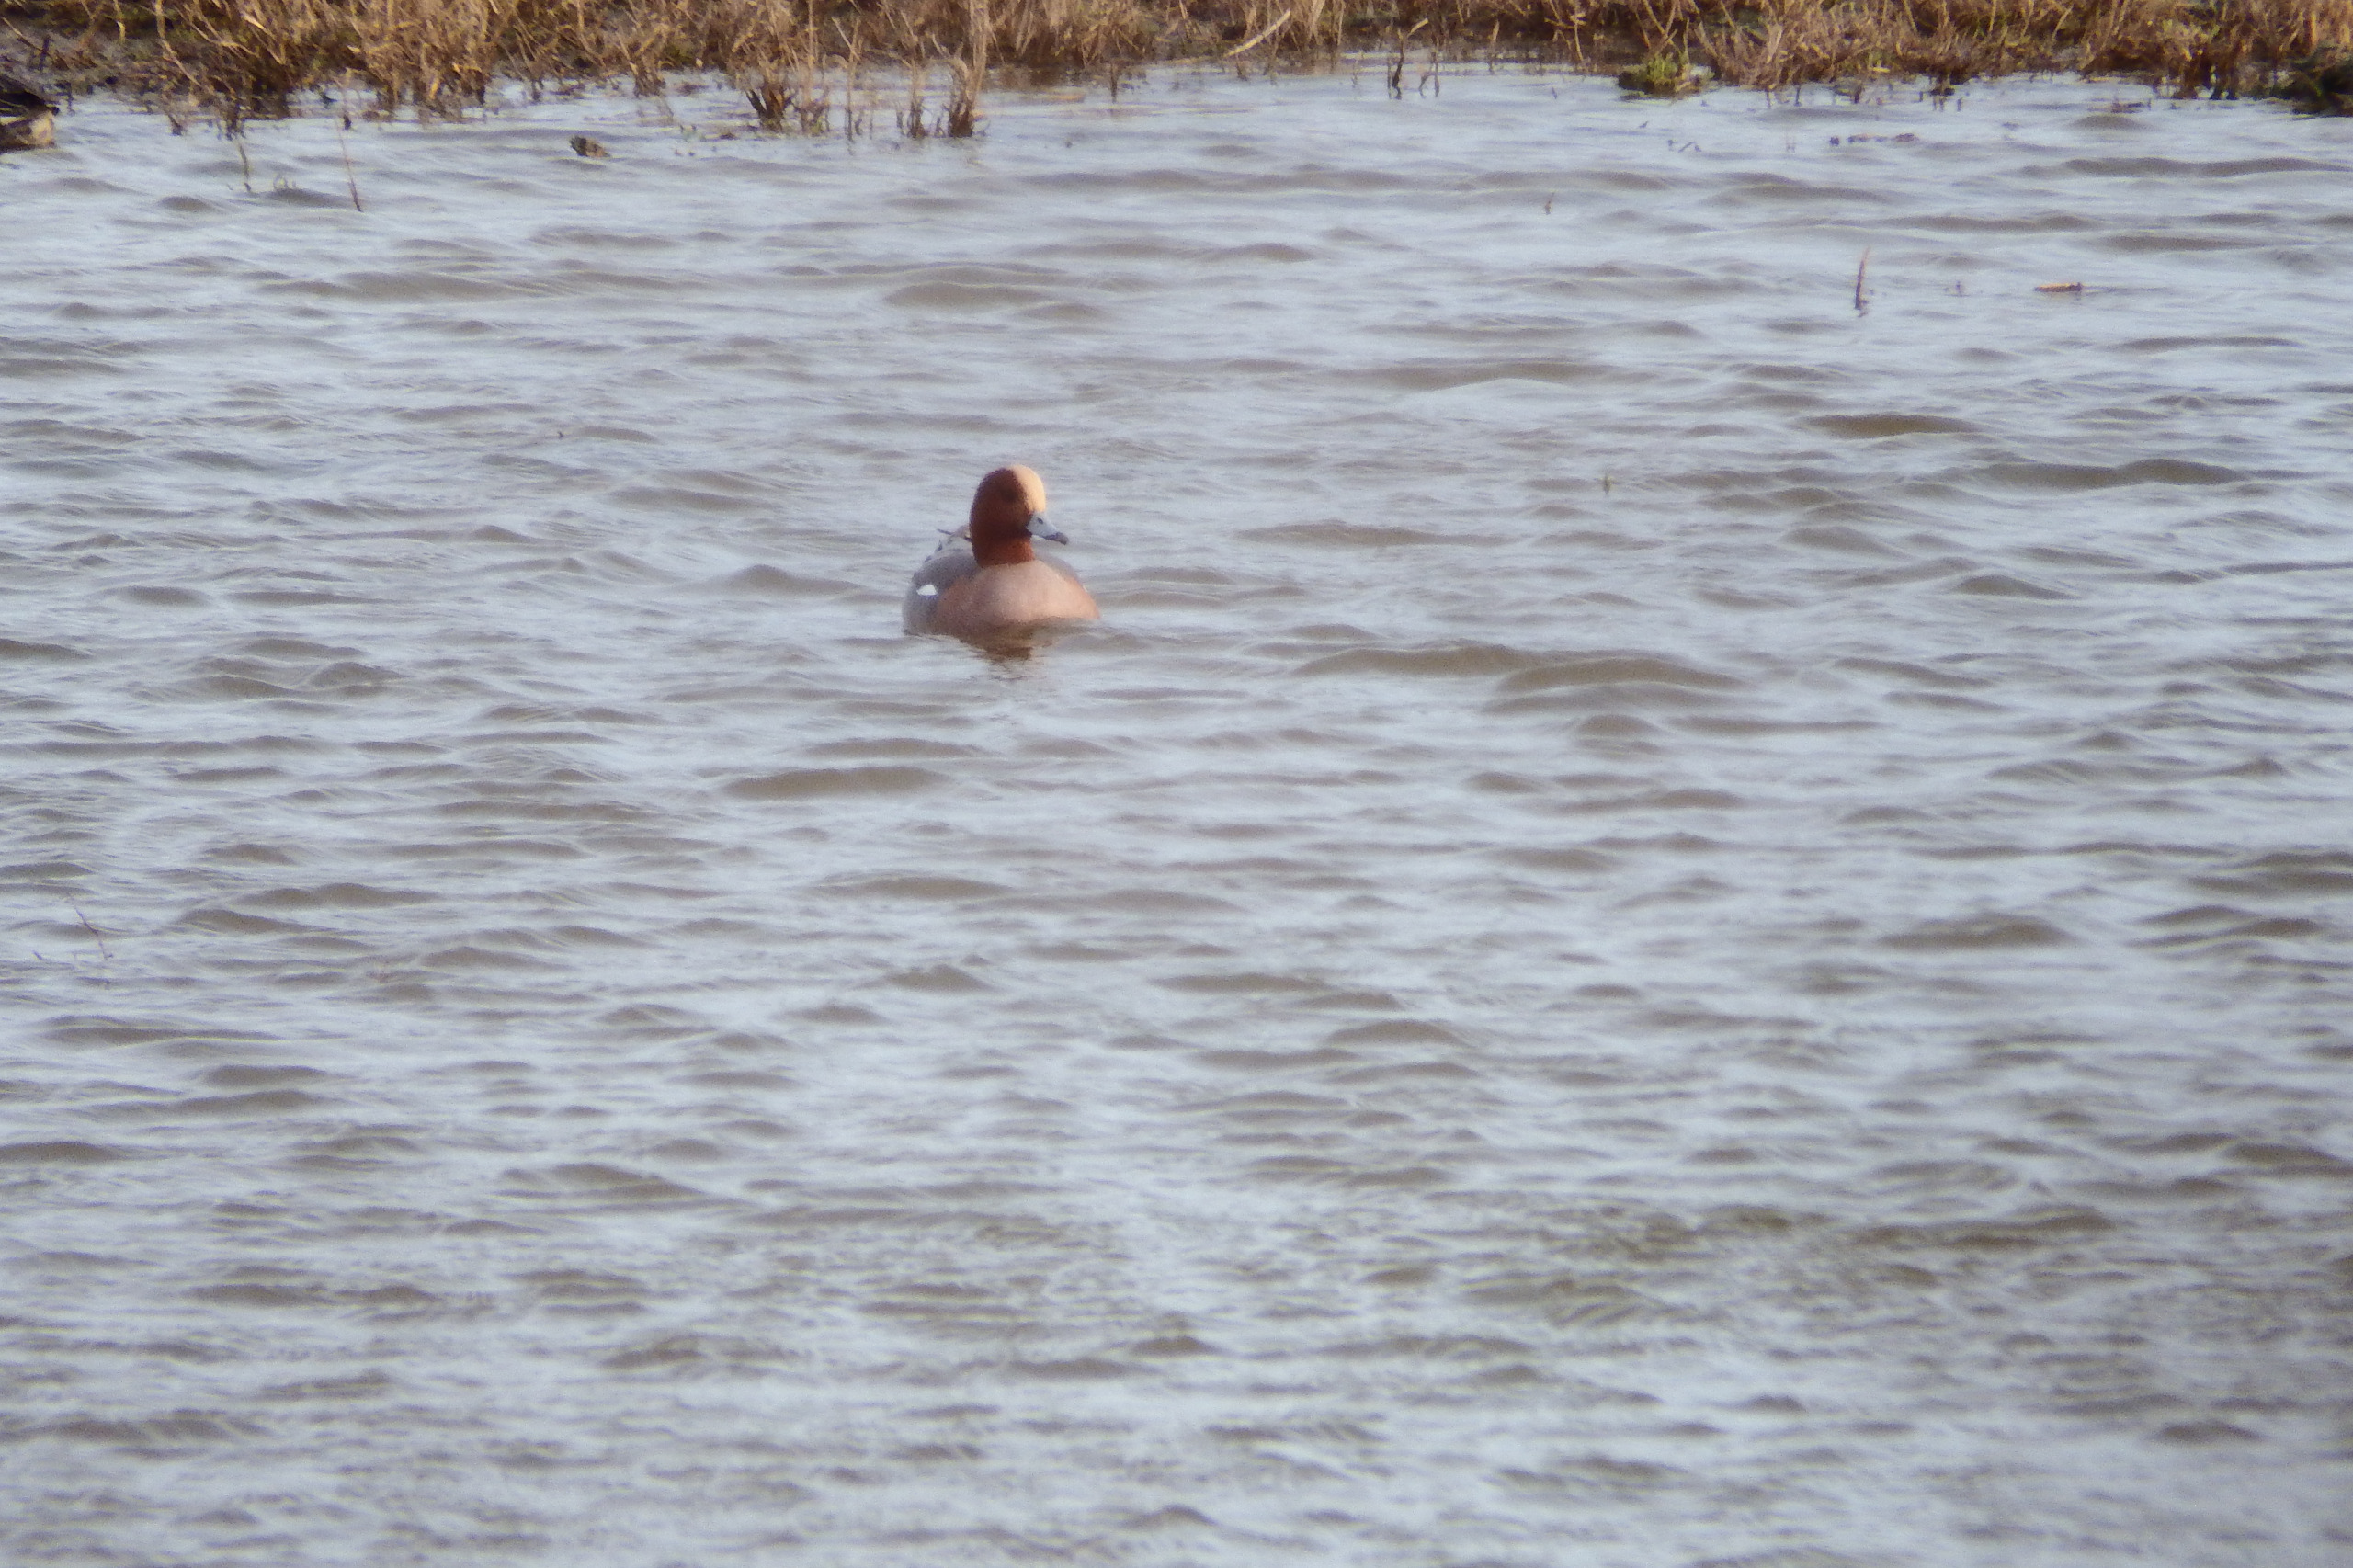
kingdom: Animalia
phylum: Chordata
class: Aves
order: Anseriformes
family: Anatidae
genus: Mareca
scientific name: Mareca penelope
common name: Pibeand
